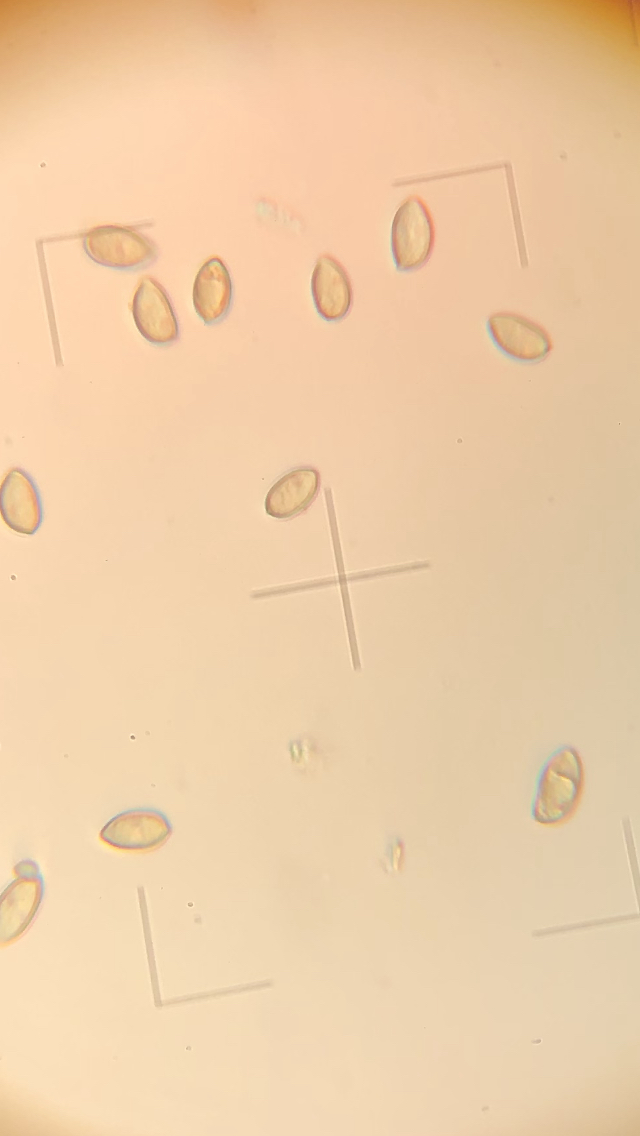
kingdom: Fungi
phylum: Basidiomycota
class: Agaricomycetes
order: Agaricales
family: Inocybaceae
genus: Inocybe
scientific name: Inocybe fuscidula
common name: brunfibret trævlhat
